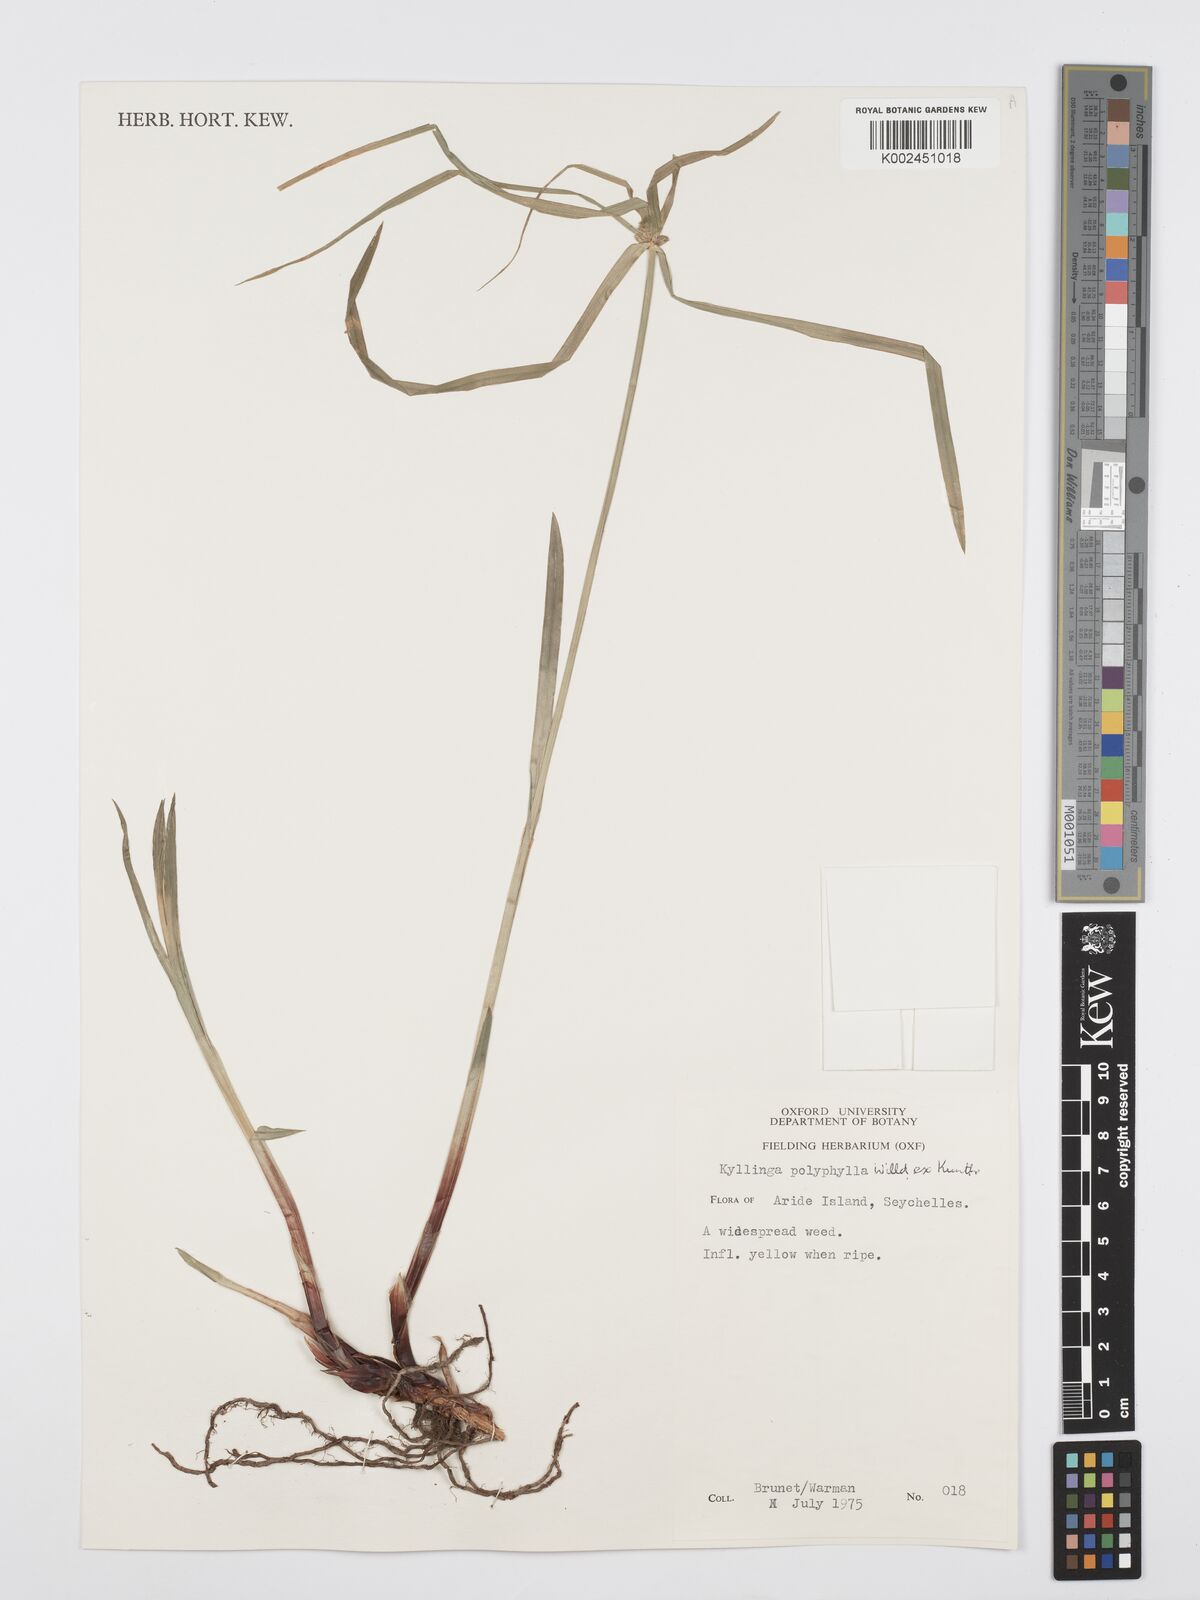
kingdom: Plantae
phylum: Tracheophyta
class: Liliopsida
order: Poales
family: Cyperaceae
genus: Cyperus
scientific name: Cyperus bulbosus
